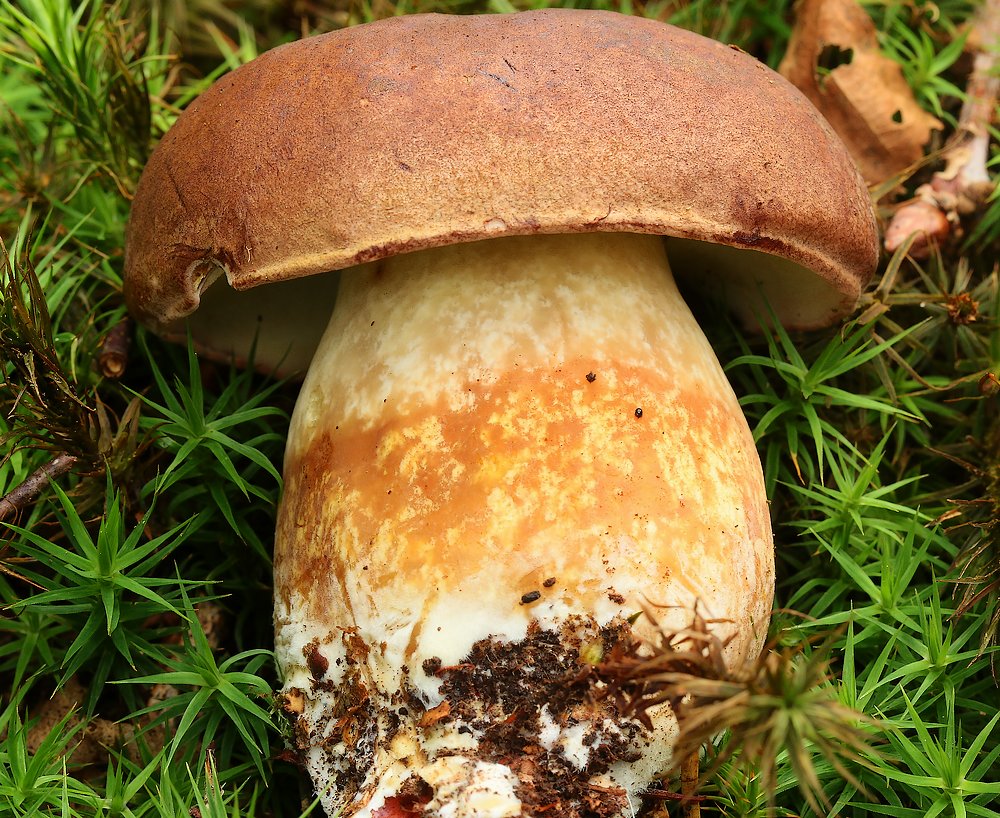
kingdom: Fungi
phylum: Basidiomycota
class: Agaricomycetes
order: Boletales
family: Boletaceae
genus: Imleria
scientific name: Imleria badia
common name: brunstokket rørhat
